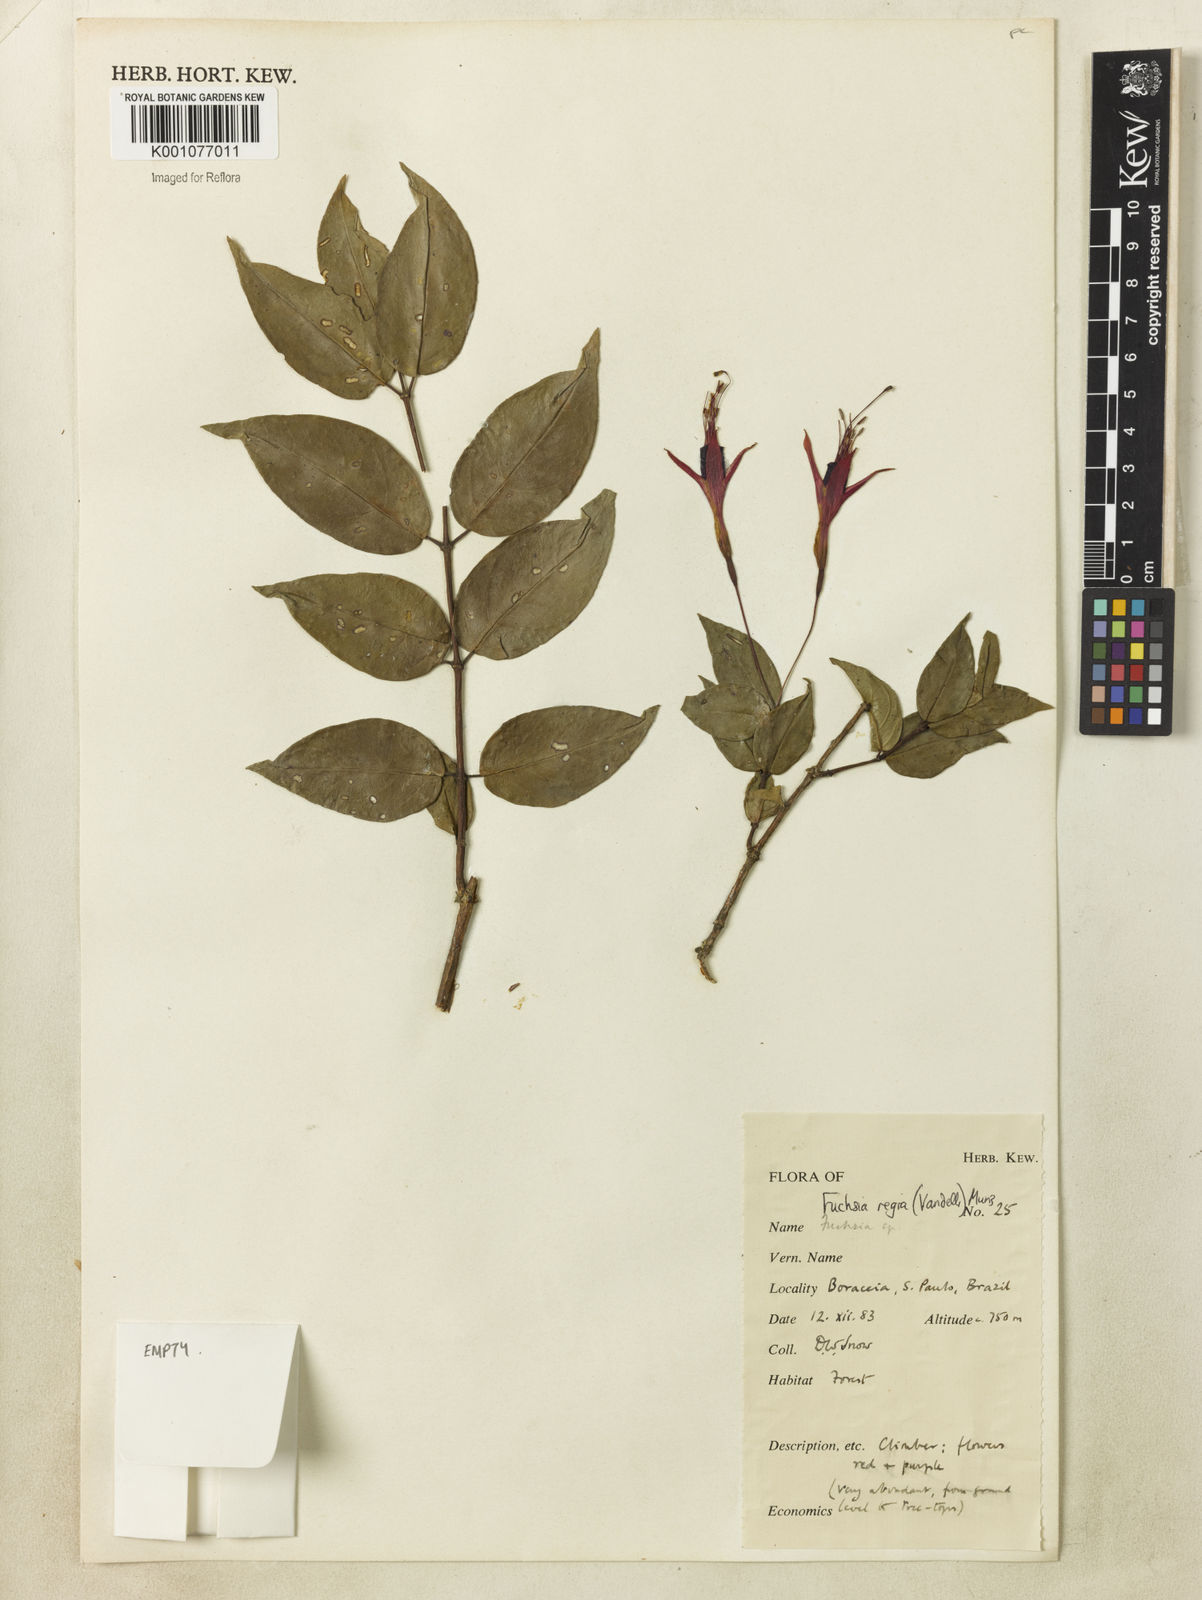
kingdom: Plantae
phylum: Tracheophyta
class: Magnoliopsida
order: Myrtales
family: Onagraceae
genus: Fuchsia
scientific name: Fuchsia regia
